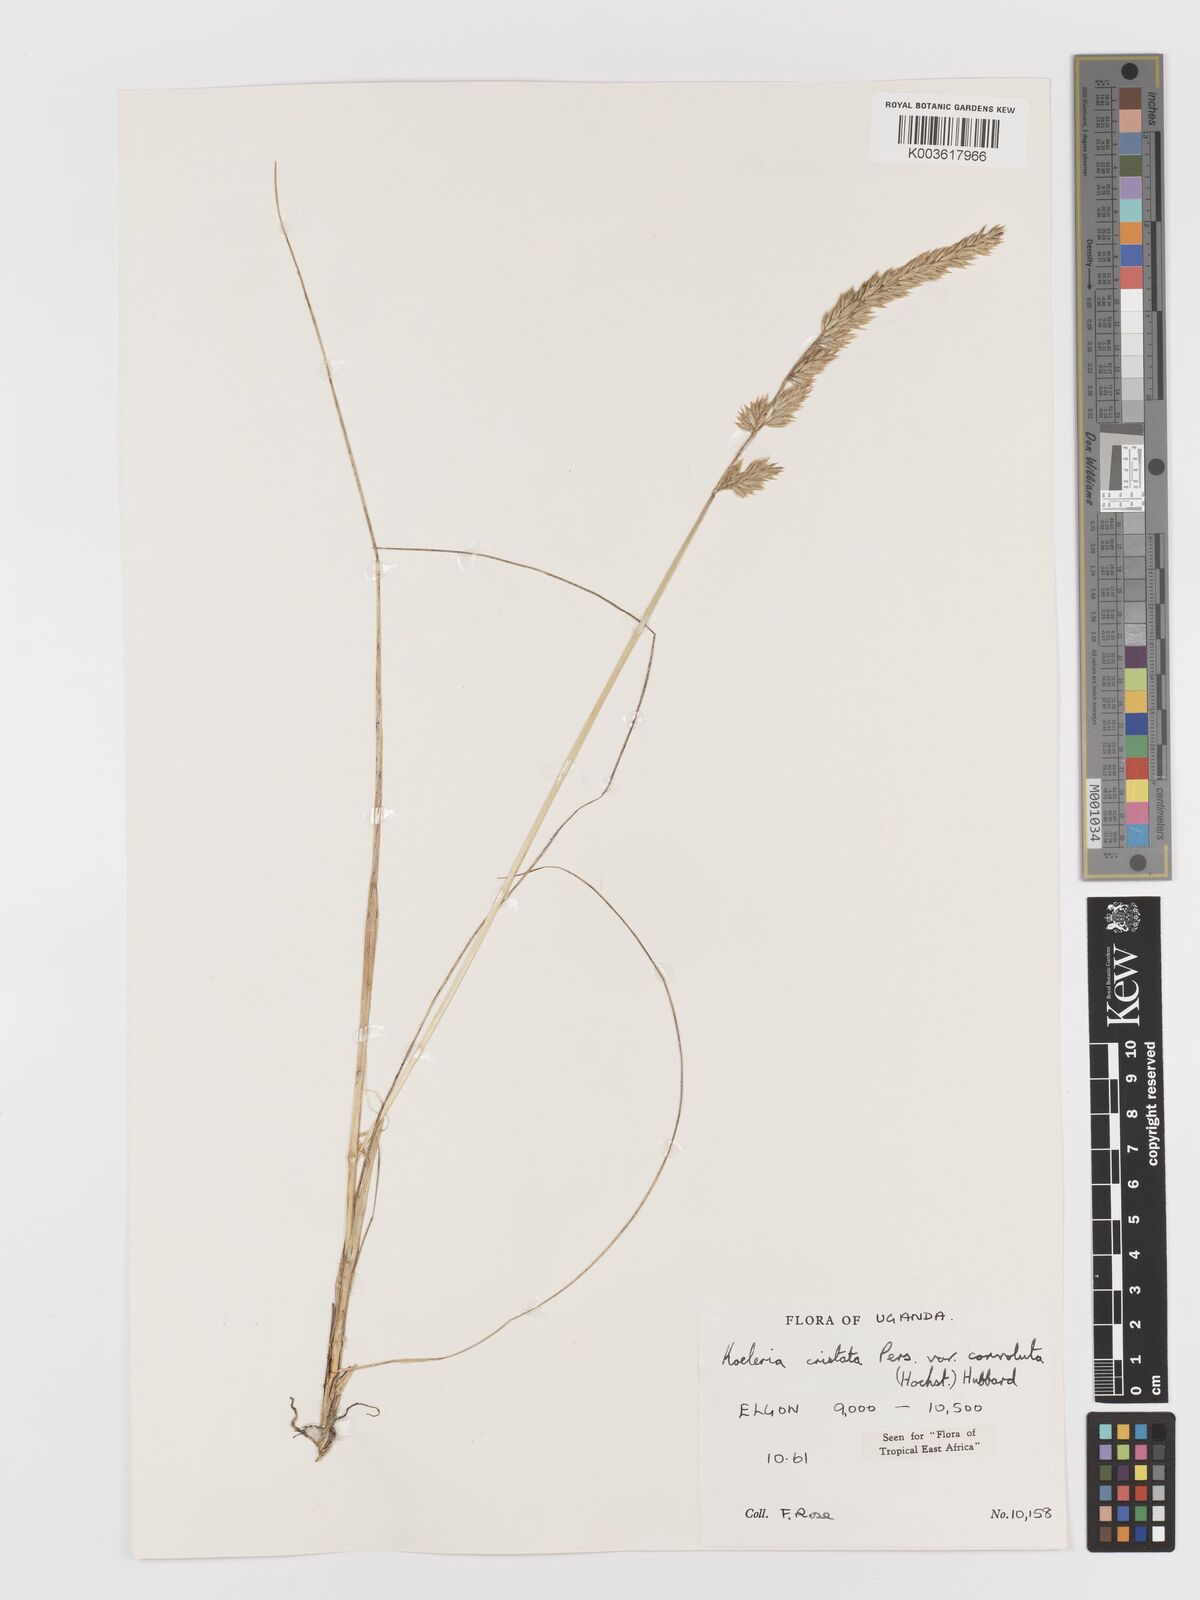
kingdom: Plantae
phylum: Tracheophyta
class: Liliopsida
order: Poales
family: Poaceae
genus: Koeleria
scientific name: Koeleria capensis
